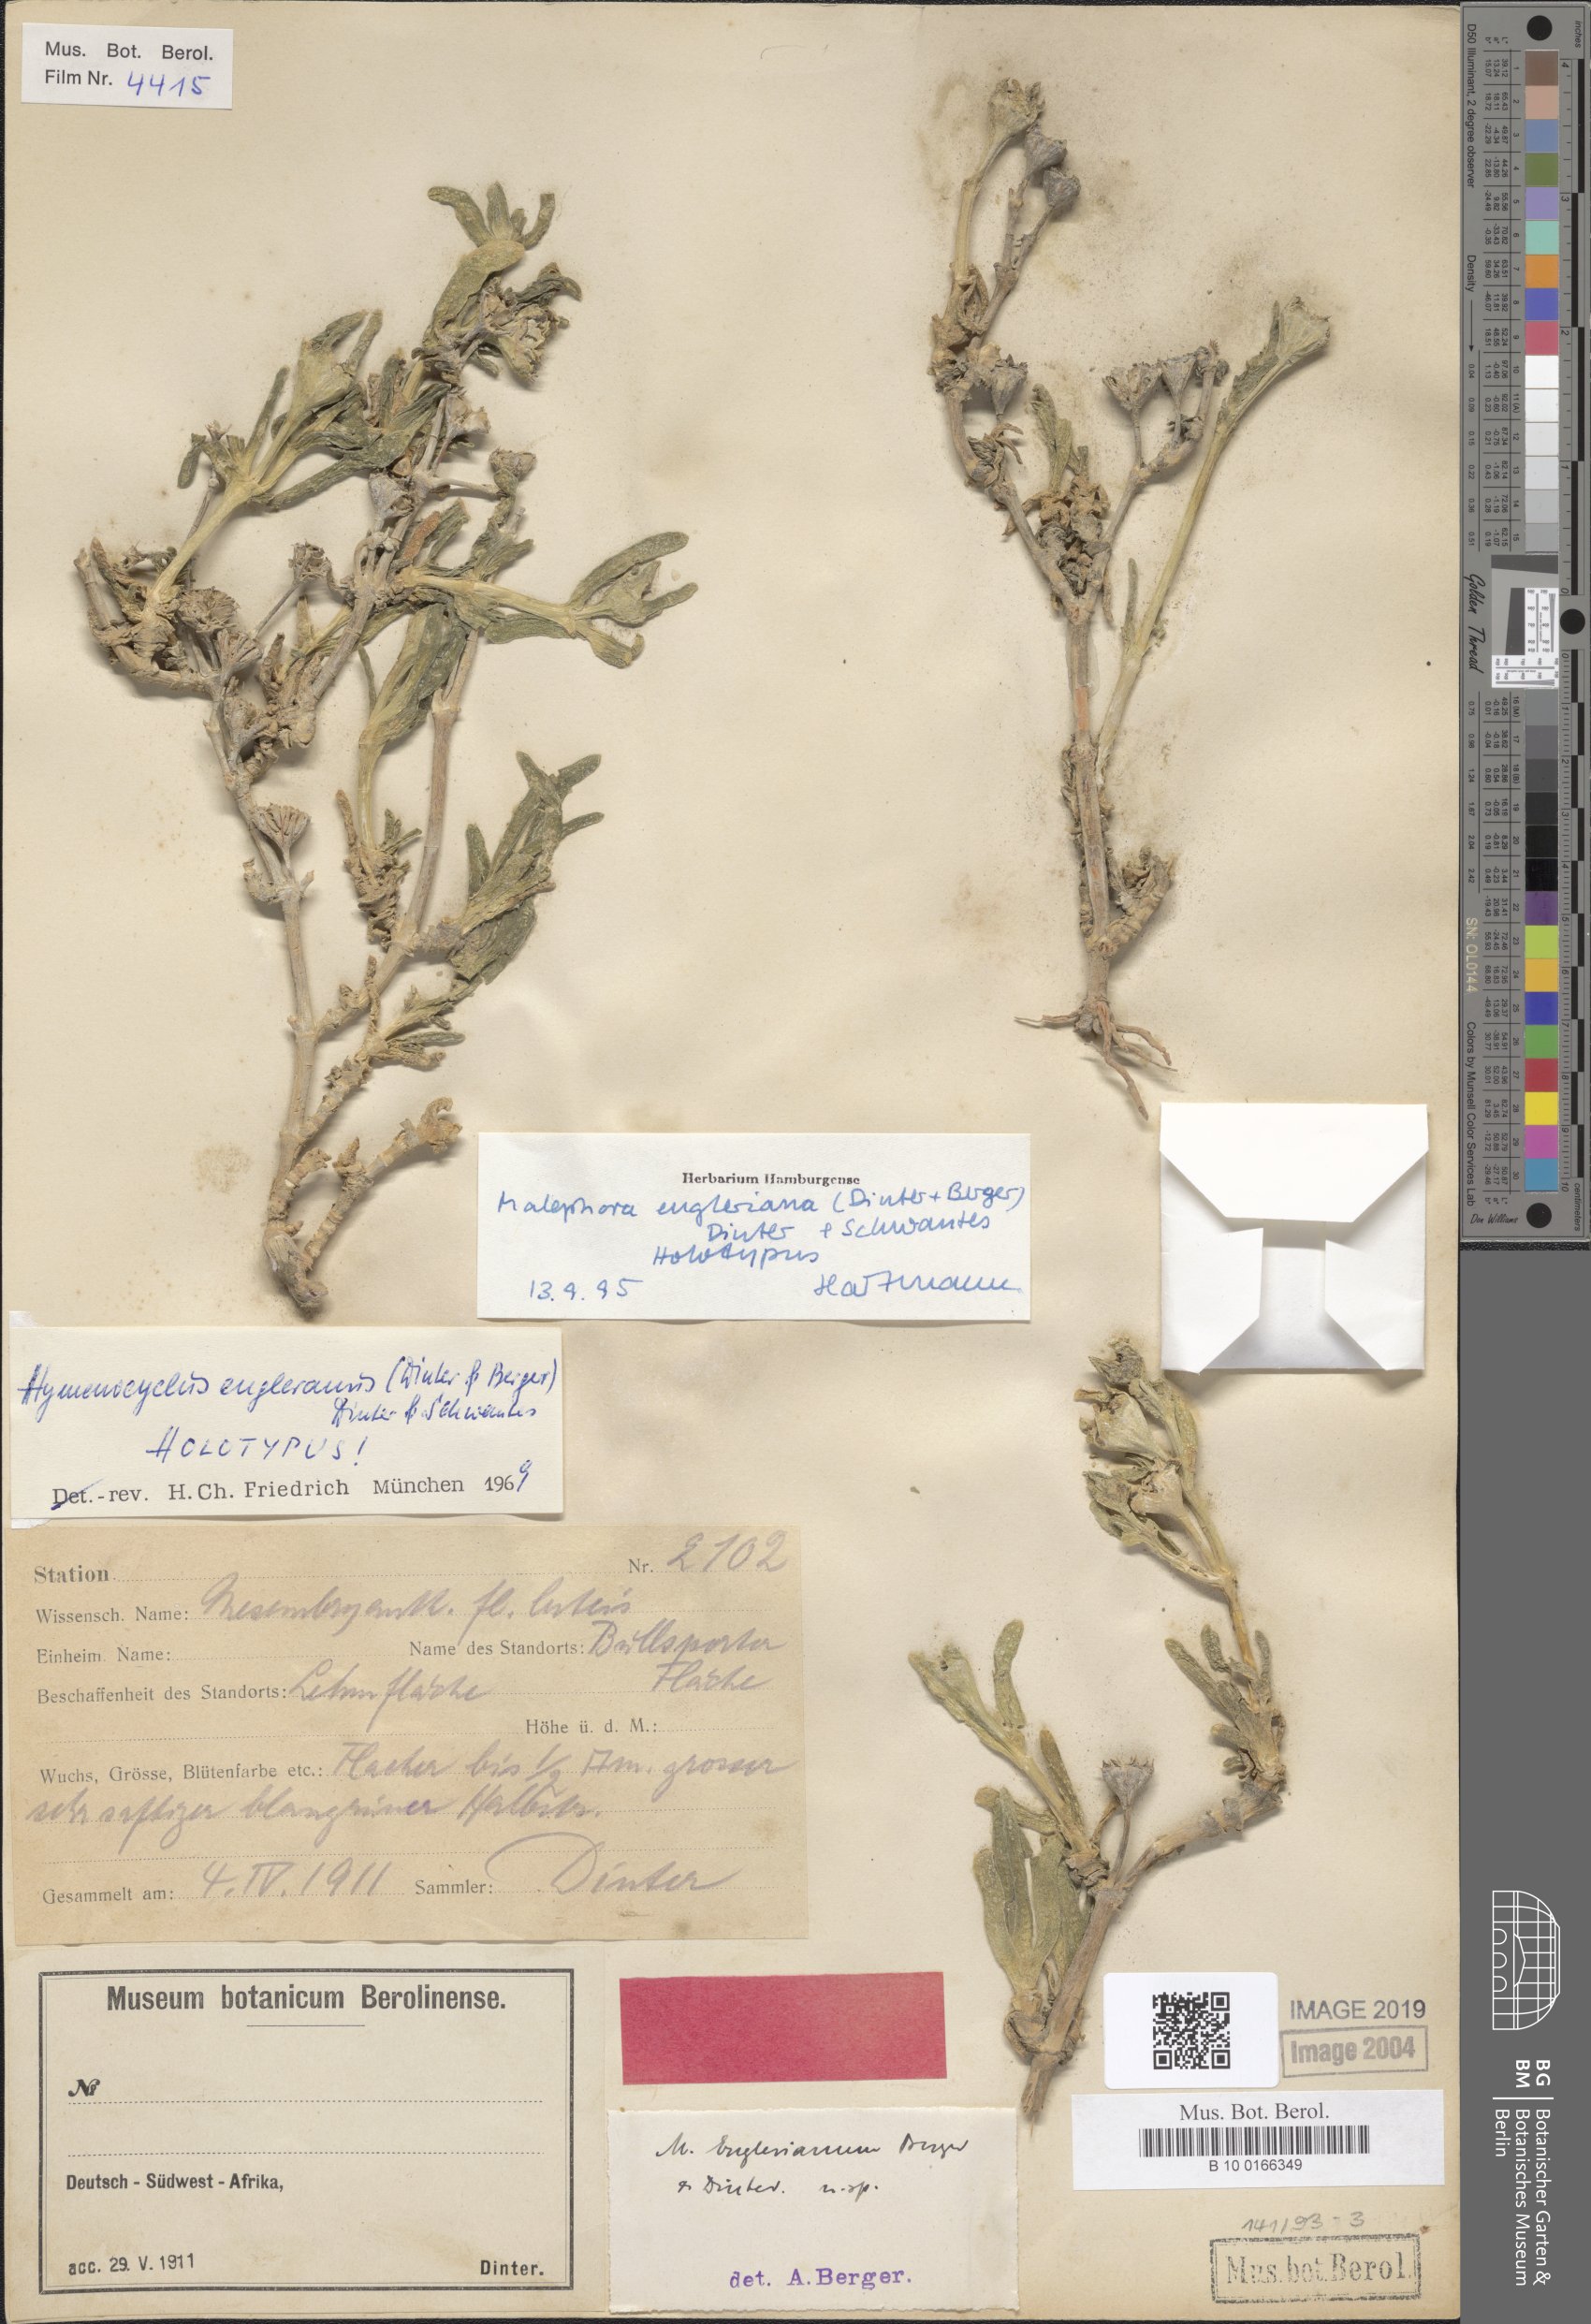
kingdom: Plantae
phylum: Tracheophyta
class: Magnoliopsida
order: Caryophyllales
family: Aizoaceae
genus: Malephora
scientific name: Malephora engleriana
